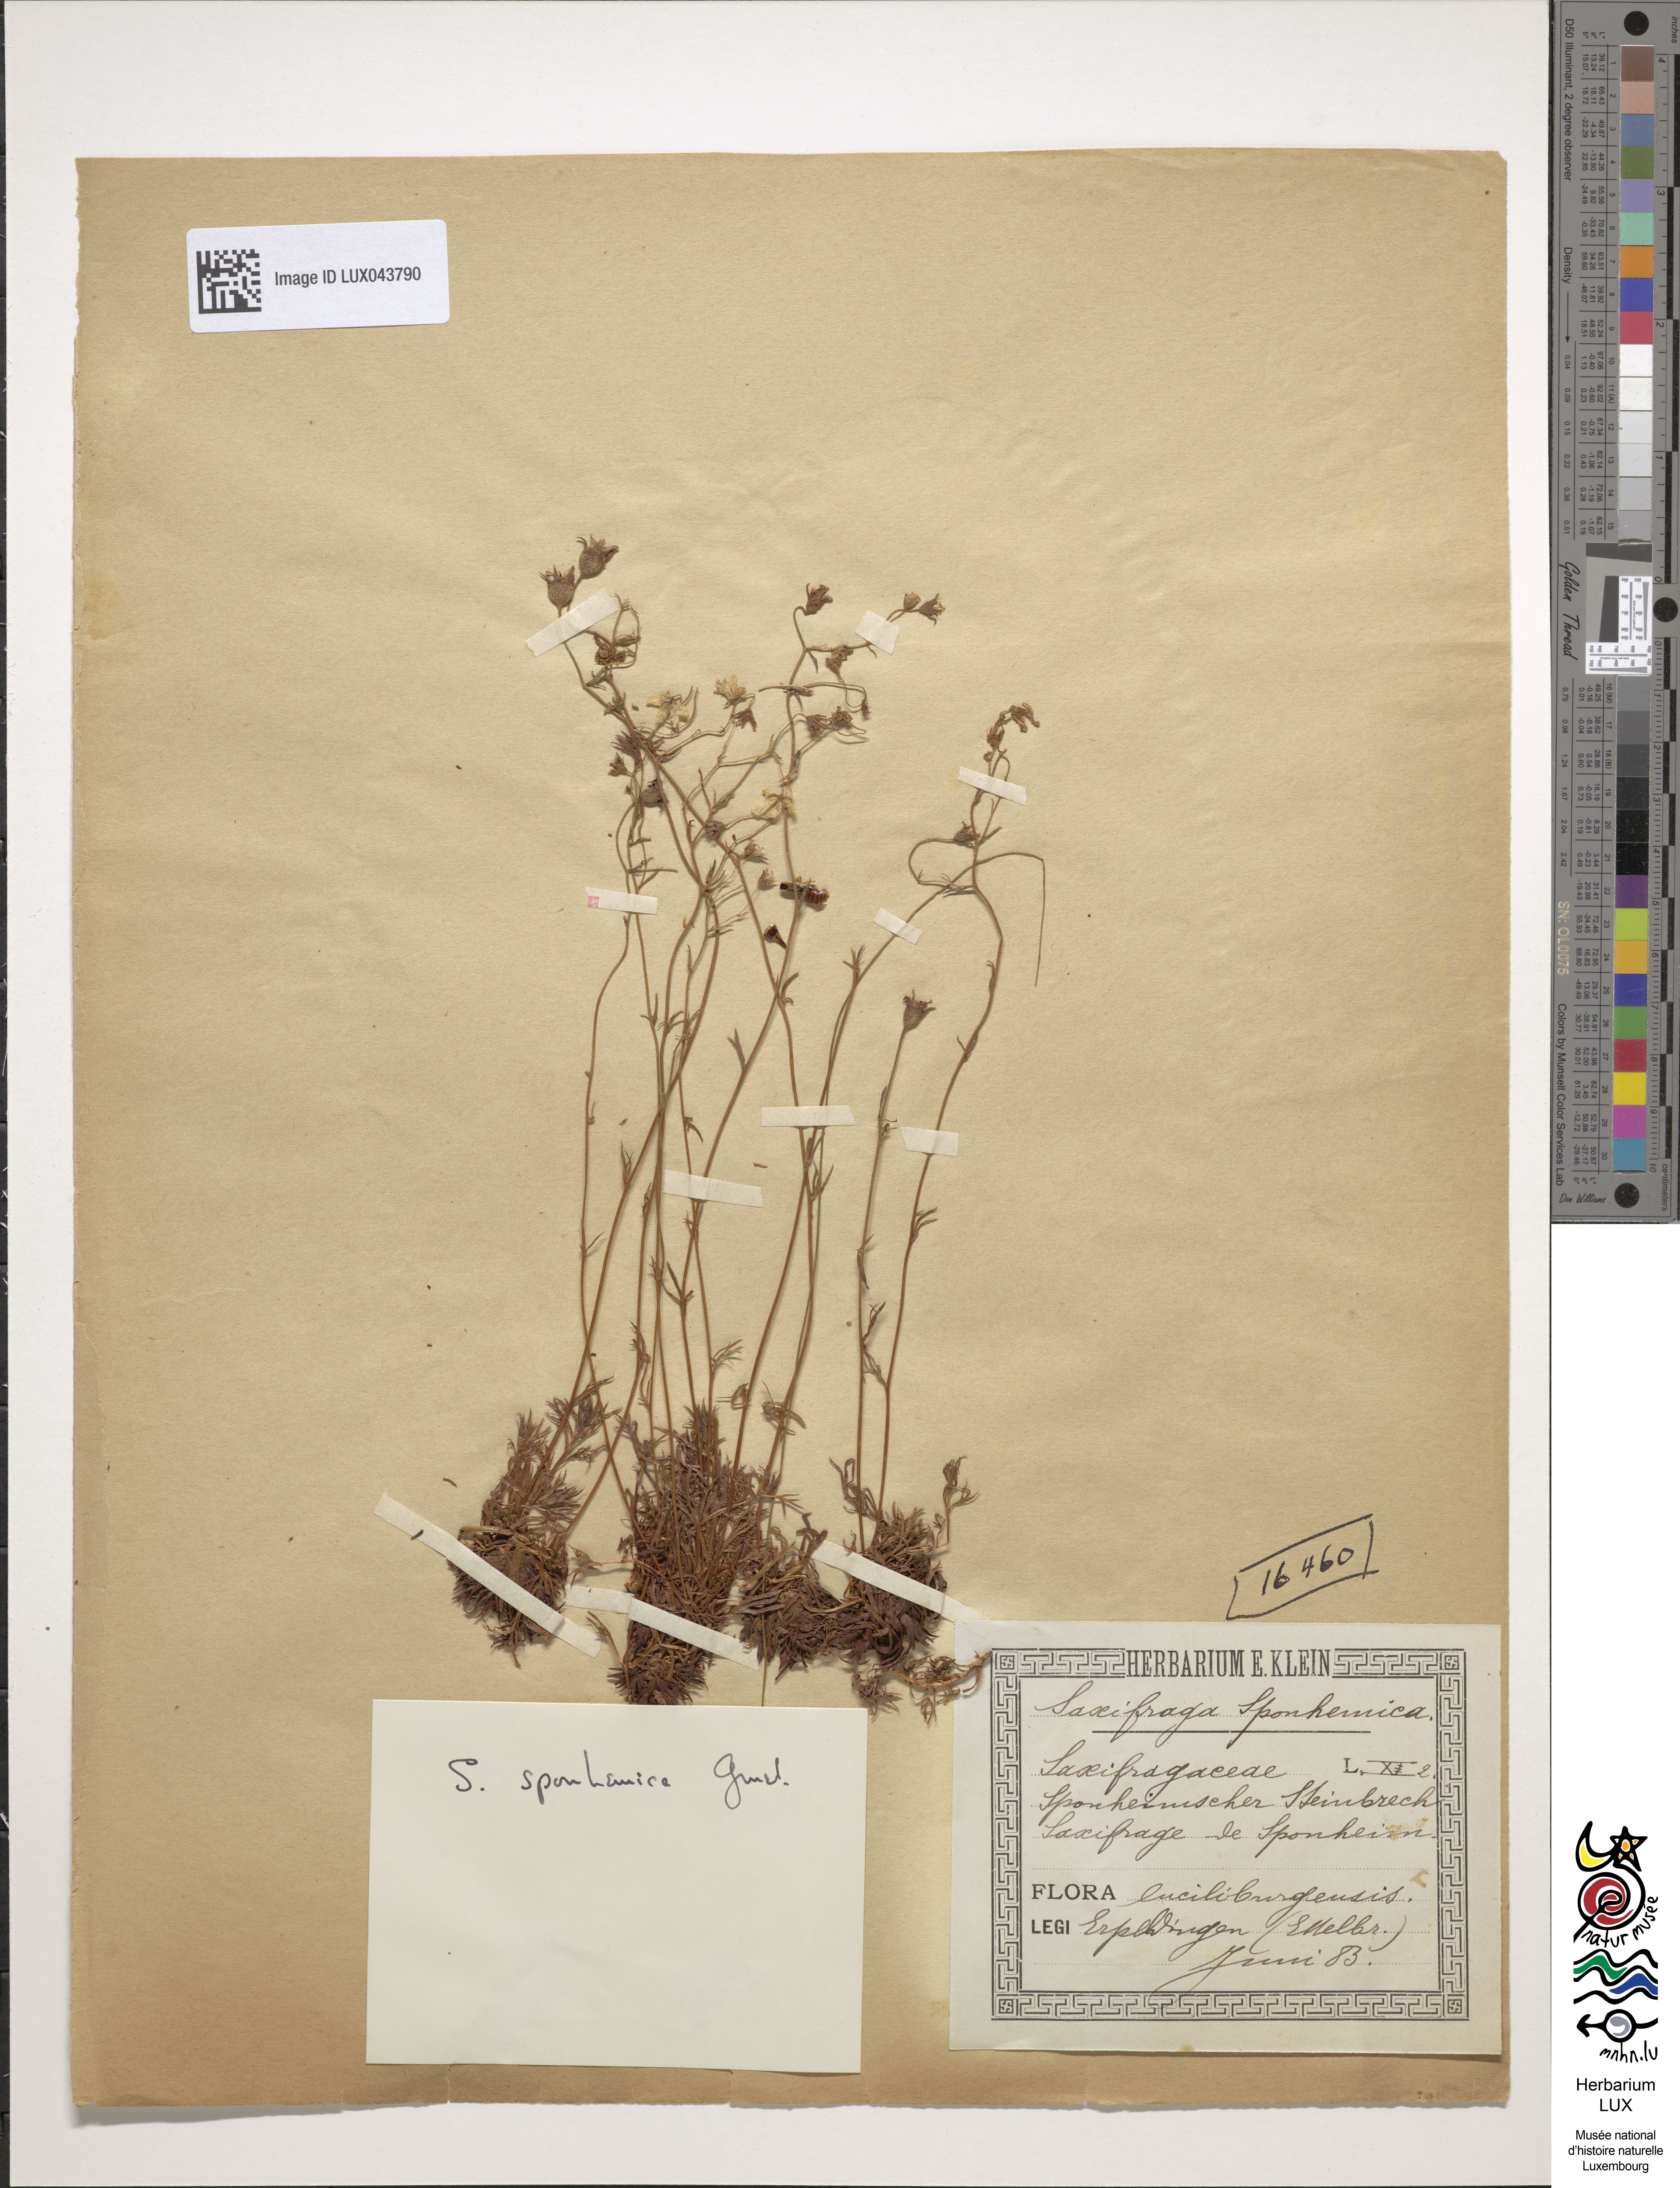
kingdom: Plantae
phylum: Tracheophyta
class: Magnoliopsida
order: Saxifragales
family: Saxifragaceae
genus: Saxifraga
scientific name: Saxifraga rosacea
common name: Irish saxifrage
